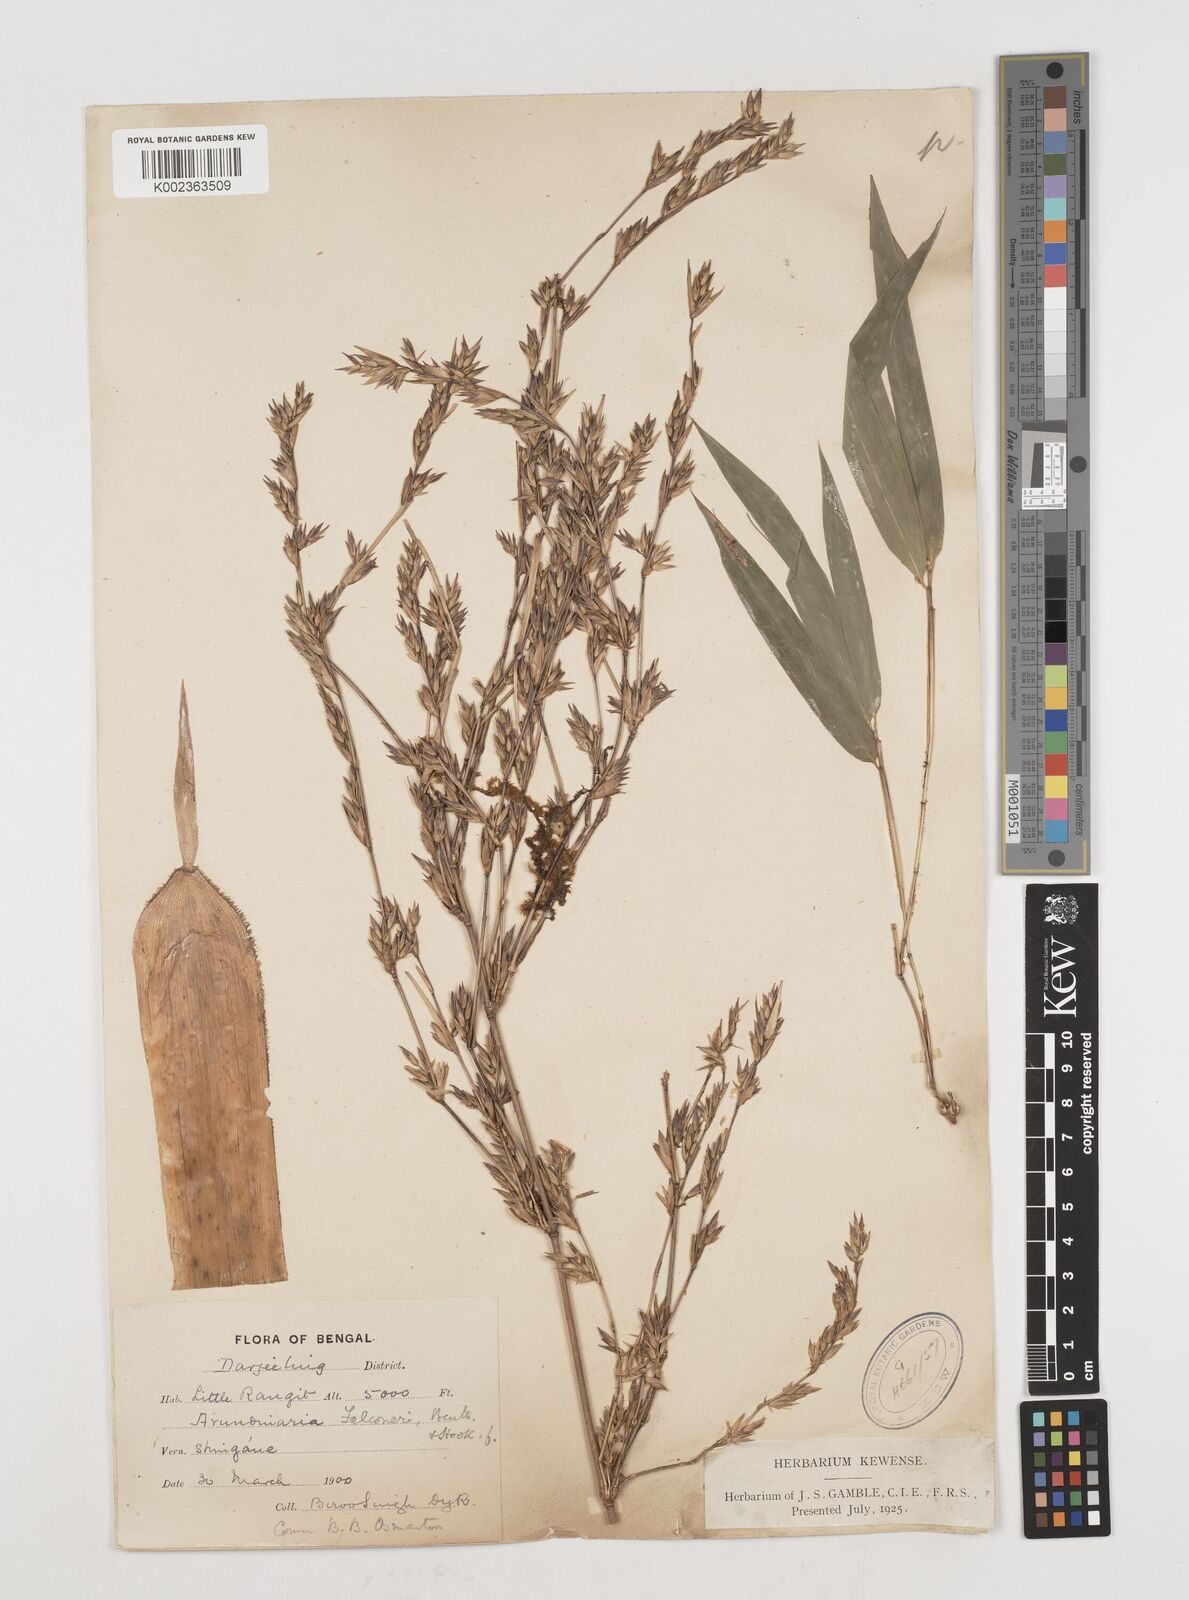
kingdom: Plantae
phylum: Tracheophyta
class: Liliopsida
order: Poales
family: Poaceae
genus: Himalayacalamus
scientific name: Himalayacalamus falconeri
